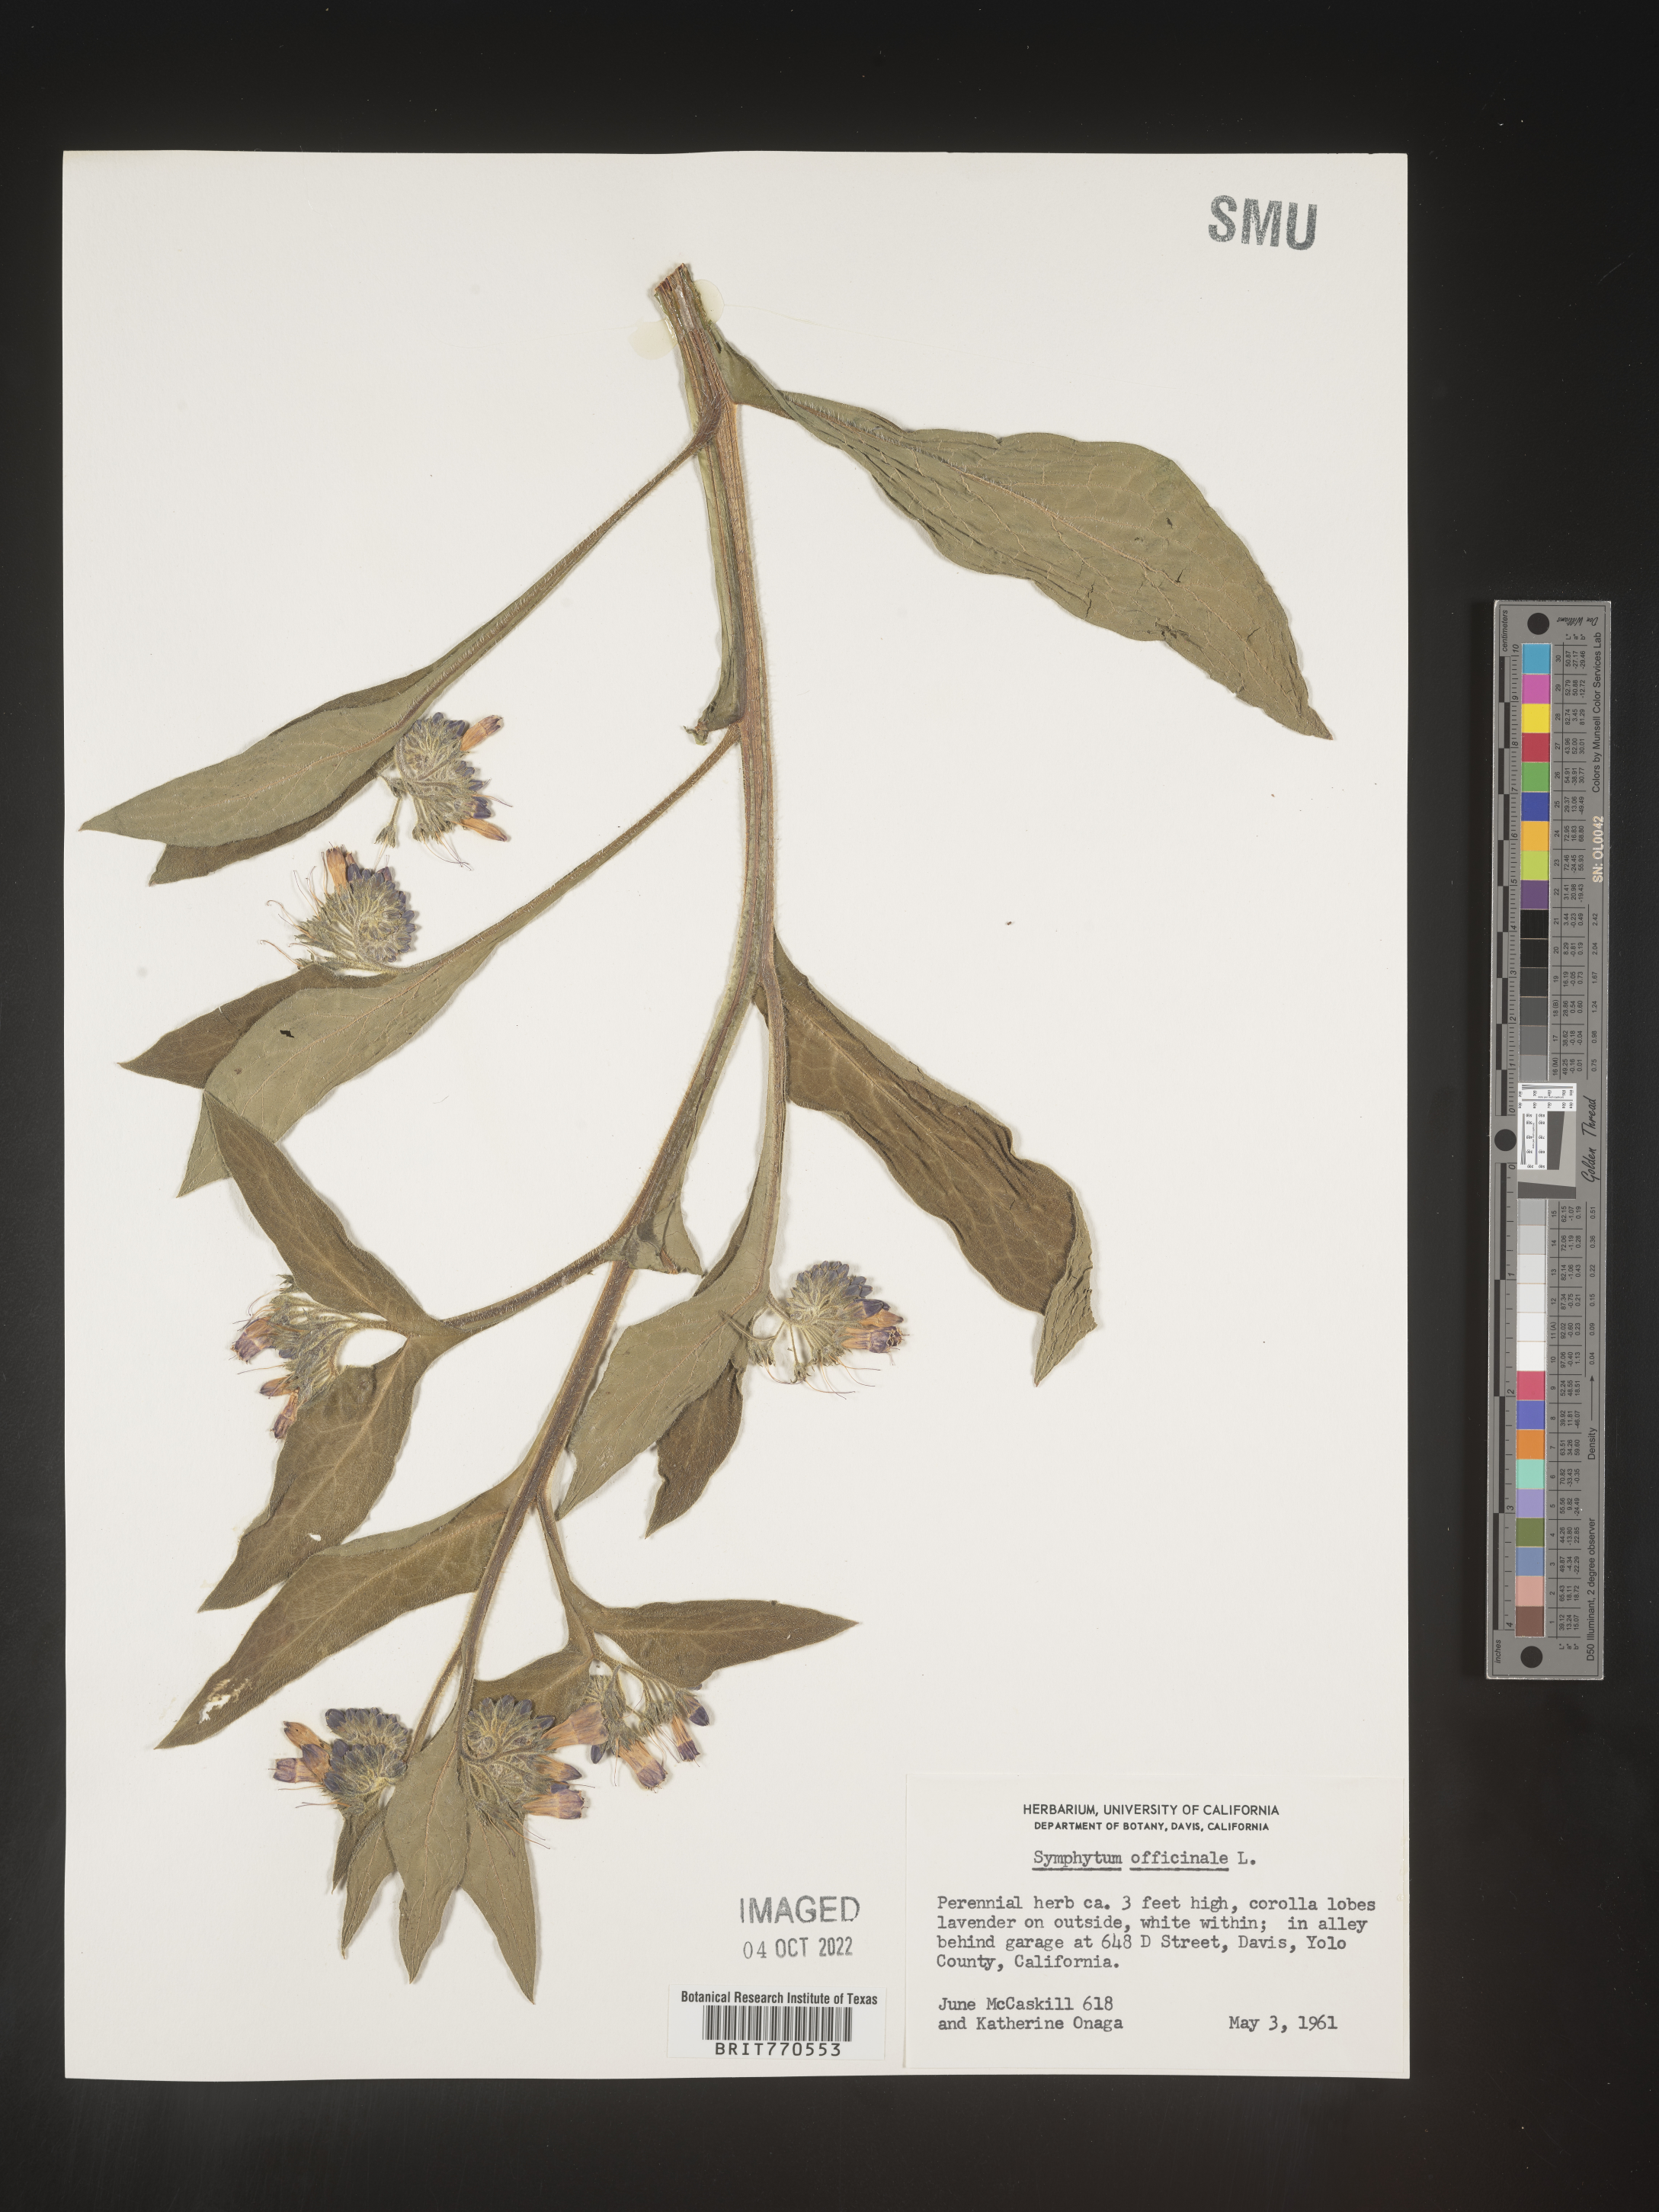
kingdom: Plantae
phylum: Tracheophyta
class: Magnoliopsida
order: Boraginales
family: Boraginaceae
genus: Symphytum
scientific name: Symphytum
